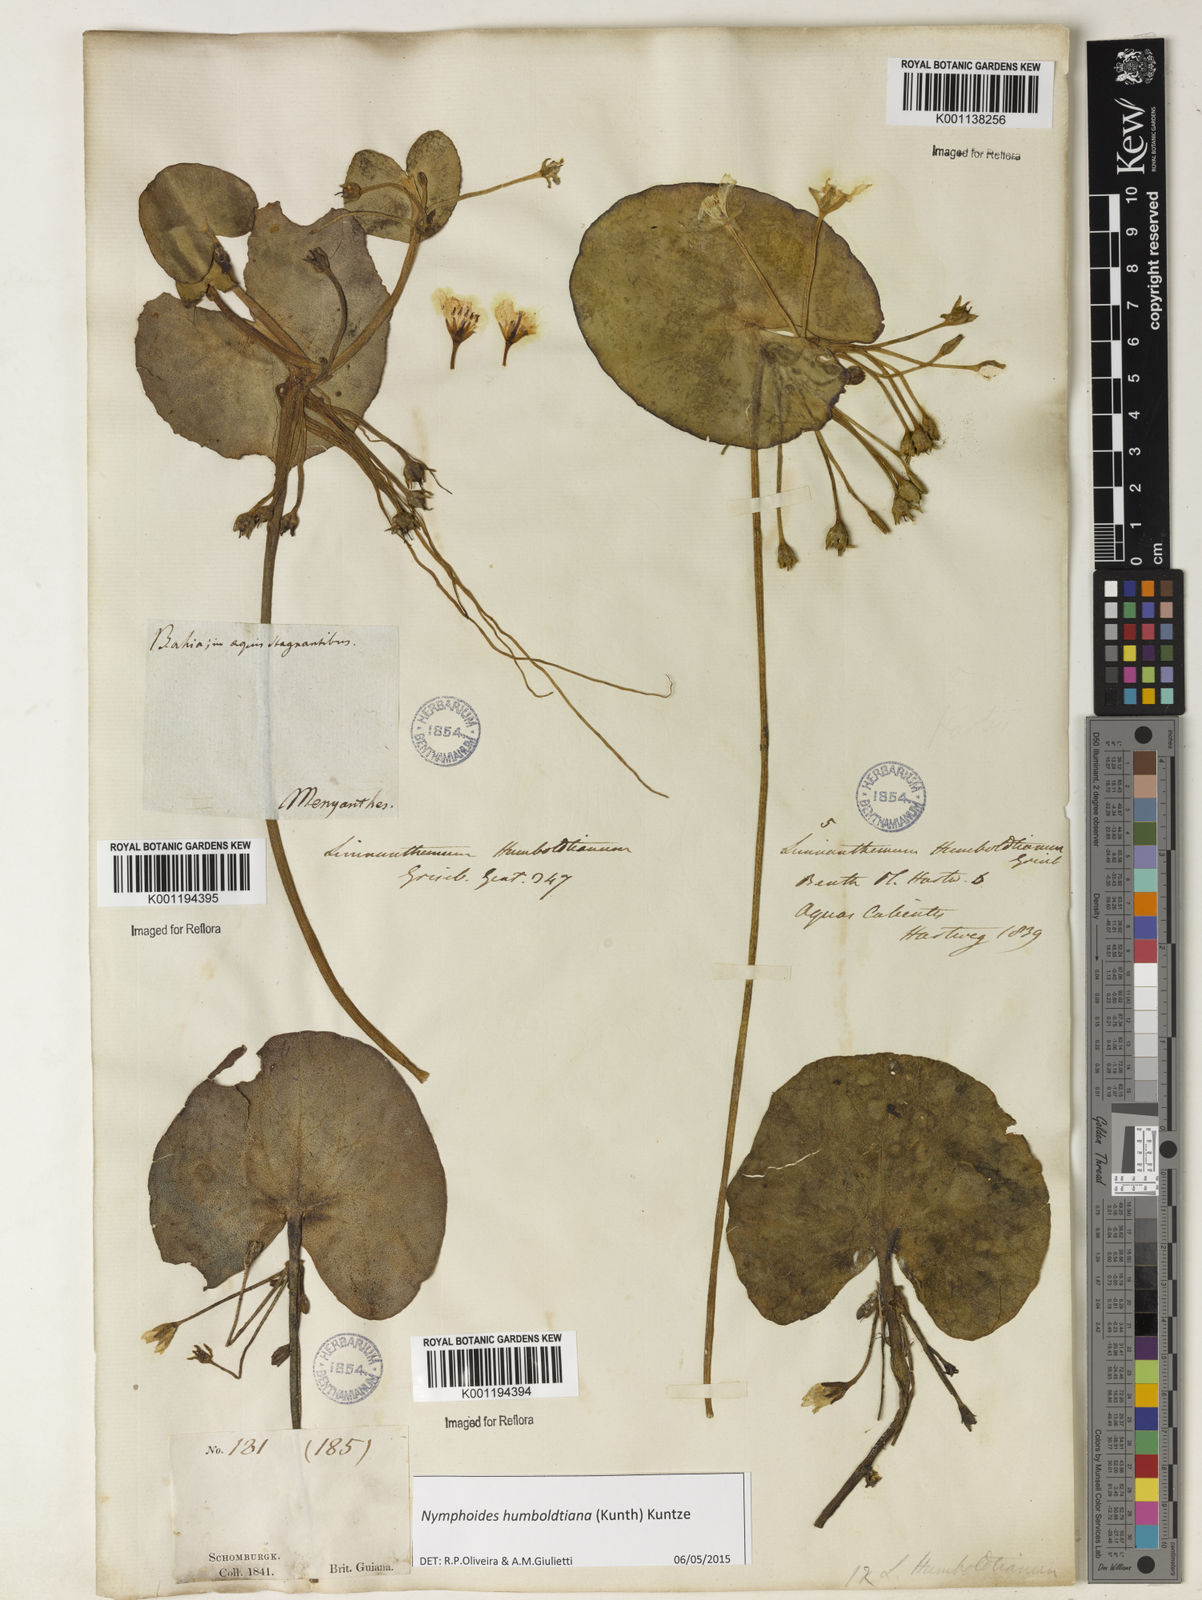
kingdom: Plantae
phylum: Tracheophyta
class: Magnoliopsida
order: Asterales
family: Menyanthaceae
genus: Nymphoides
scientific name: Nymphoides humboldtiana
